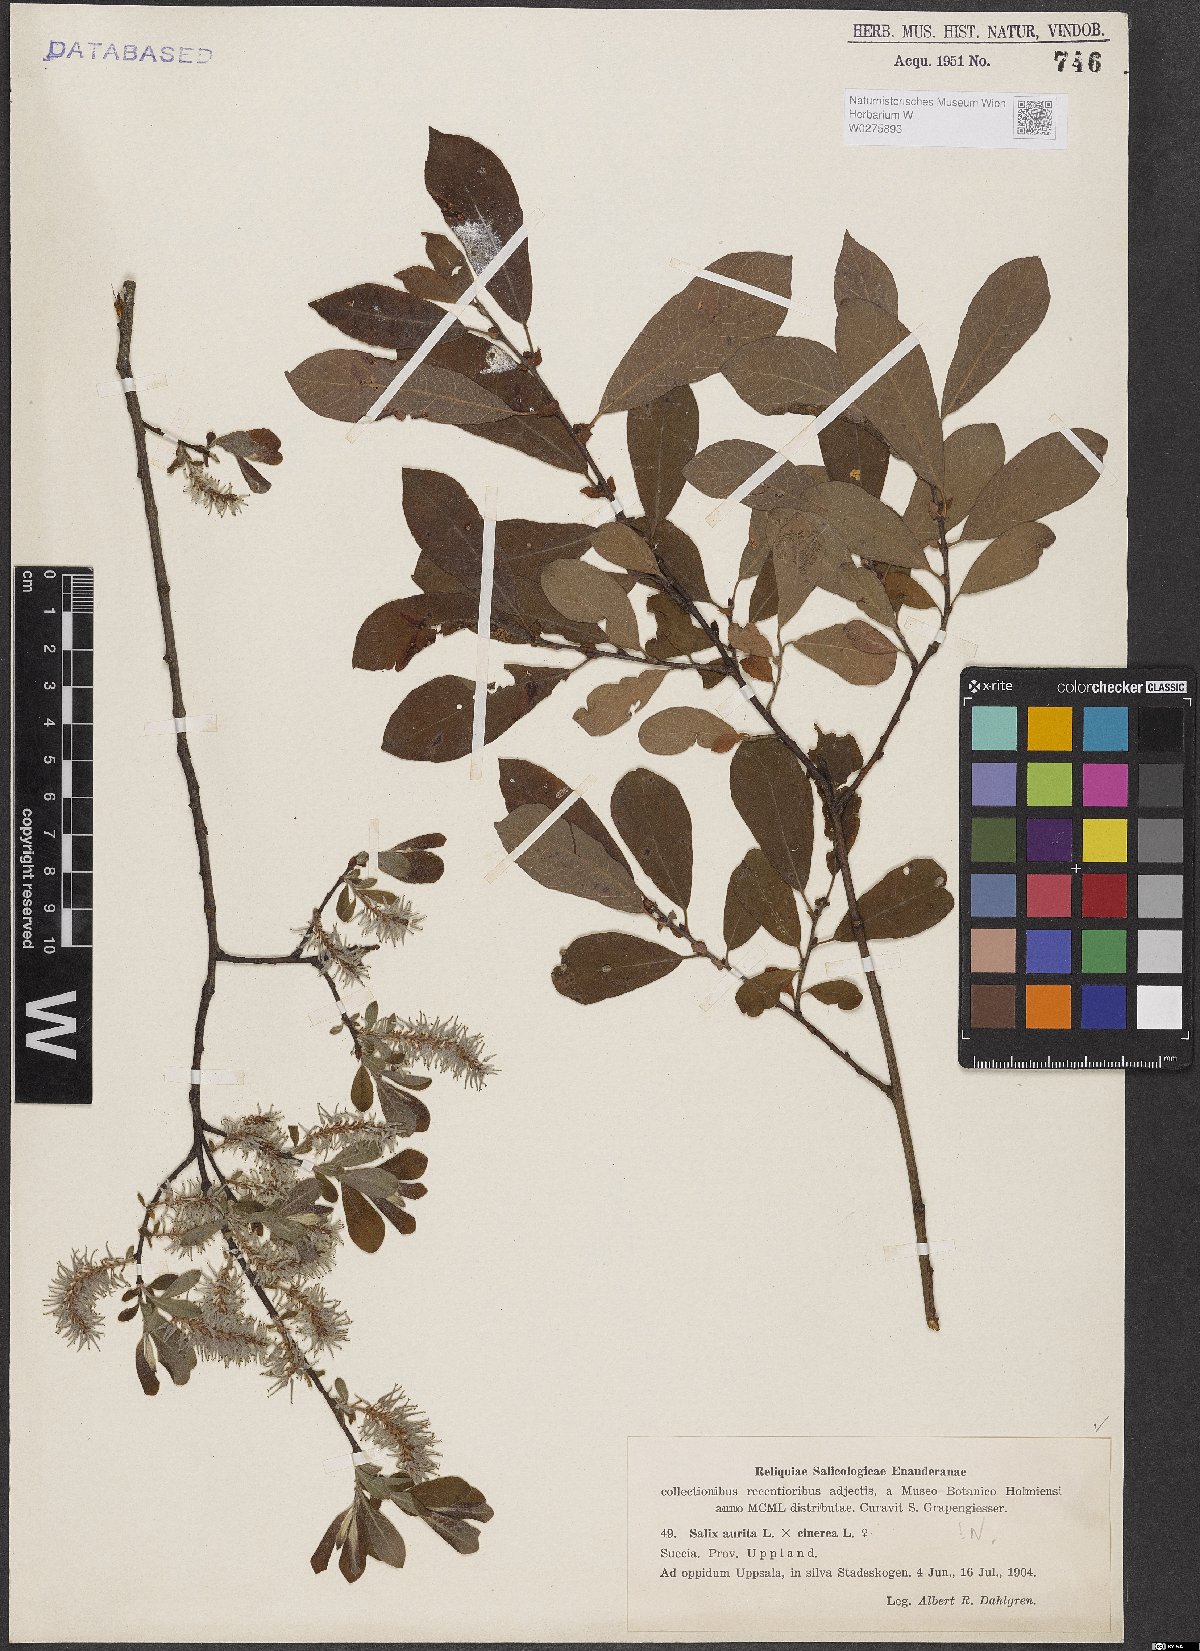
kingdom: Plantae
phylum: Tracheophyta
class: Magnoliopsida
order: Malpighiales
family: Salicaceae
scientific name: Salicaceae
